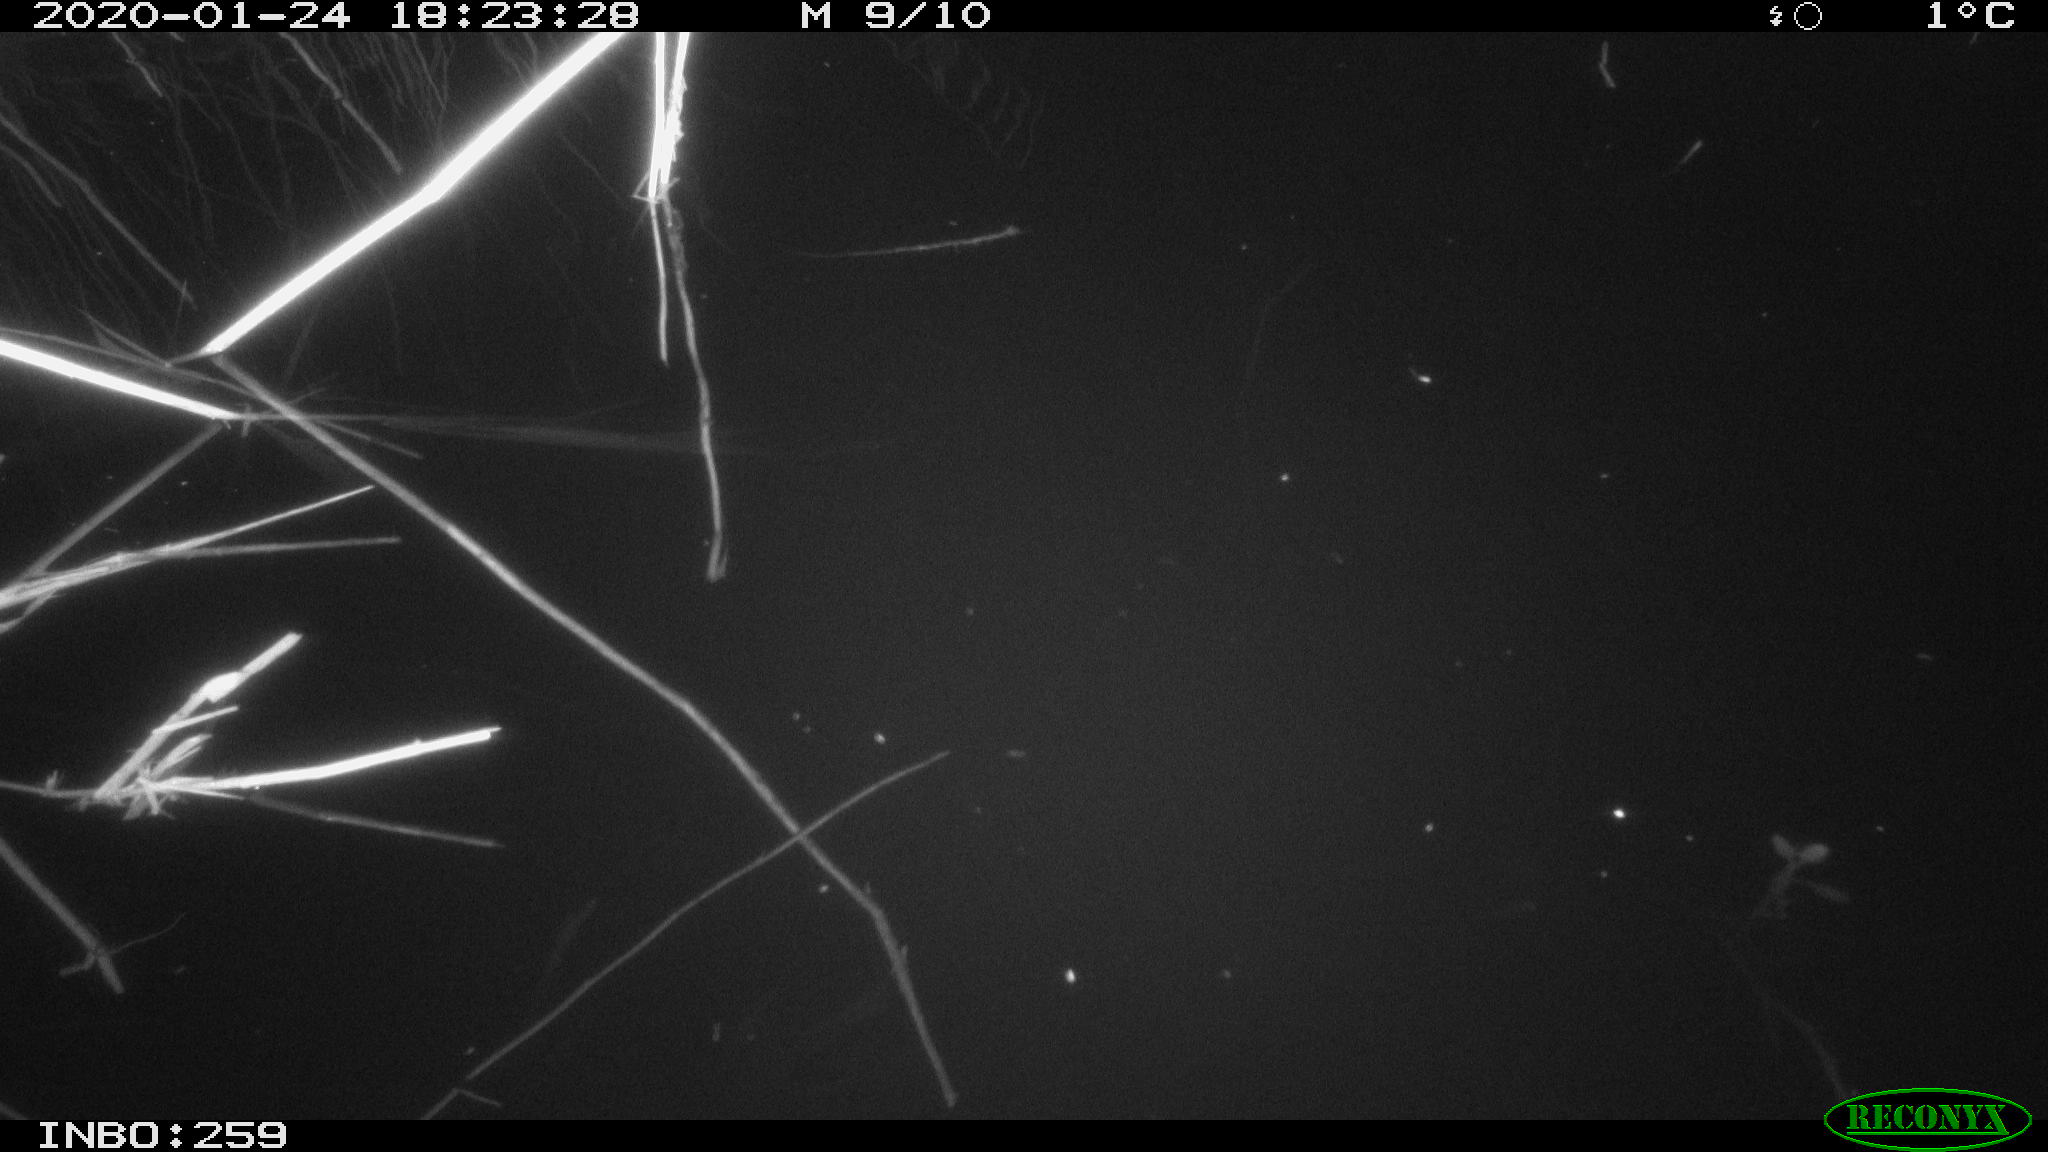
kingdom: Animalia
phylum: Chordata
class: Aves
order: Gruiformes
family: Rallidae
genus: Gallinula
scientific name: Gallinula chloropus
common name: Common moorhen
